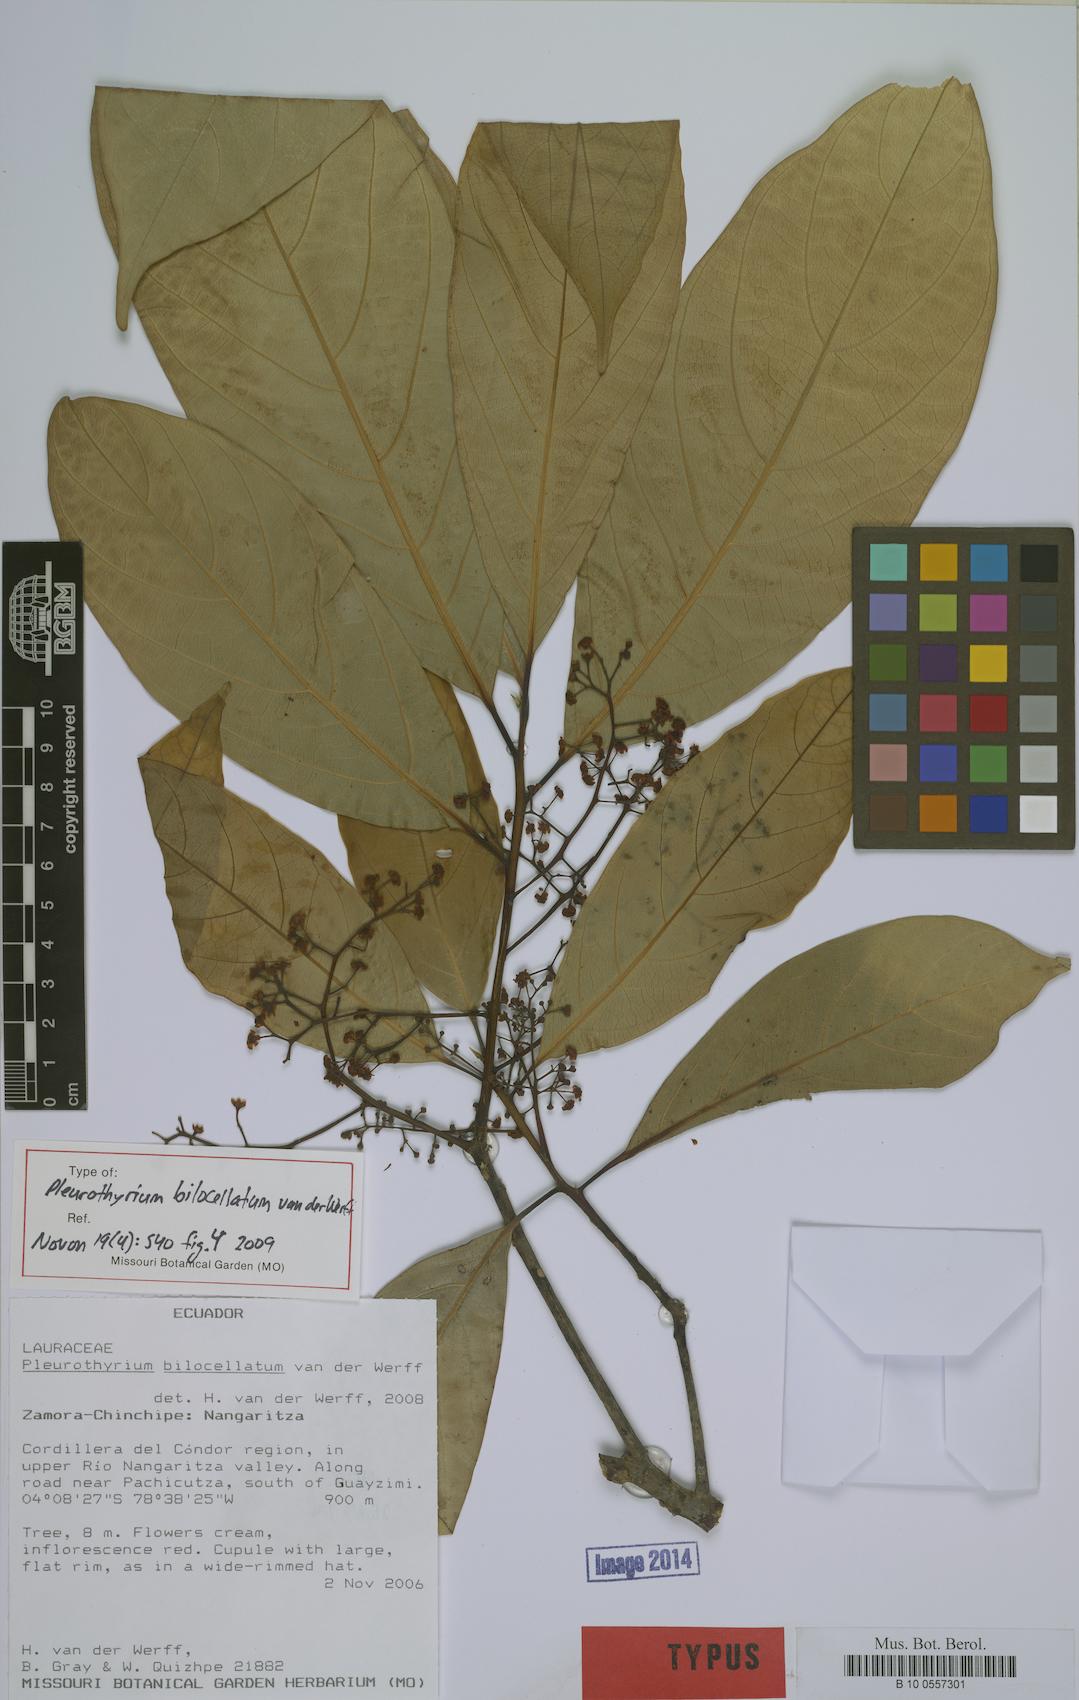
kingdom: Plantae
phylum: Tracheophyta
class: Magnoliopsida
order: Laurales
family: Lauraceae
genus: Pleurothyrium
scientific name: Pleurothyrium bilocellatum
